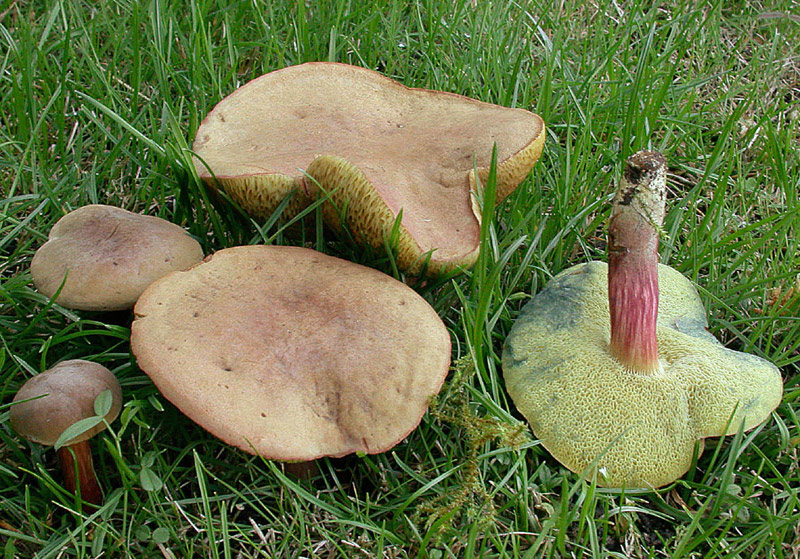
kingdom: Fungi
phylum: Basidiomycota
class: Agaricomycetes
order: Boletales
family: Boletaceae
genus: Hortiboletus
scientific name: Hortiboletus bubalinus
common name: aurora-rørhat
